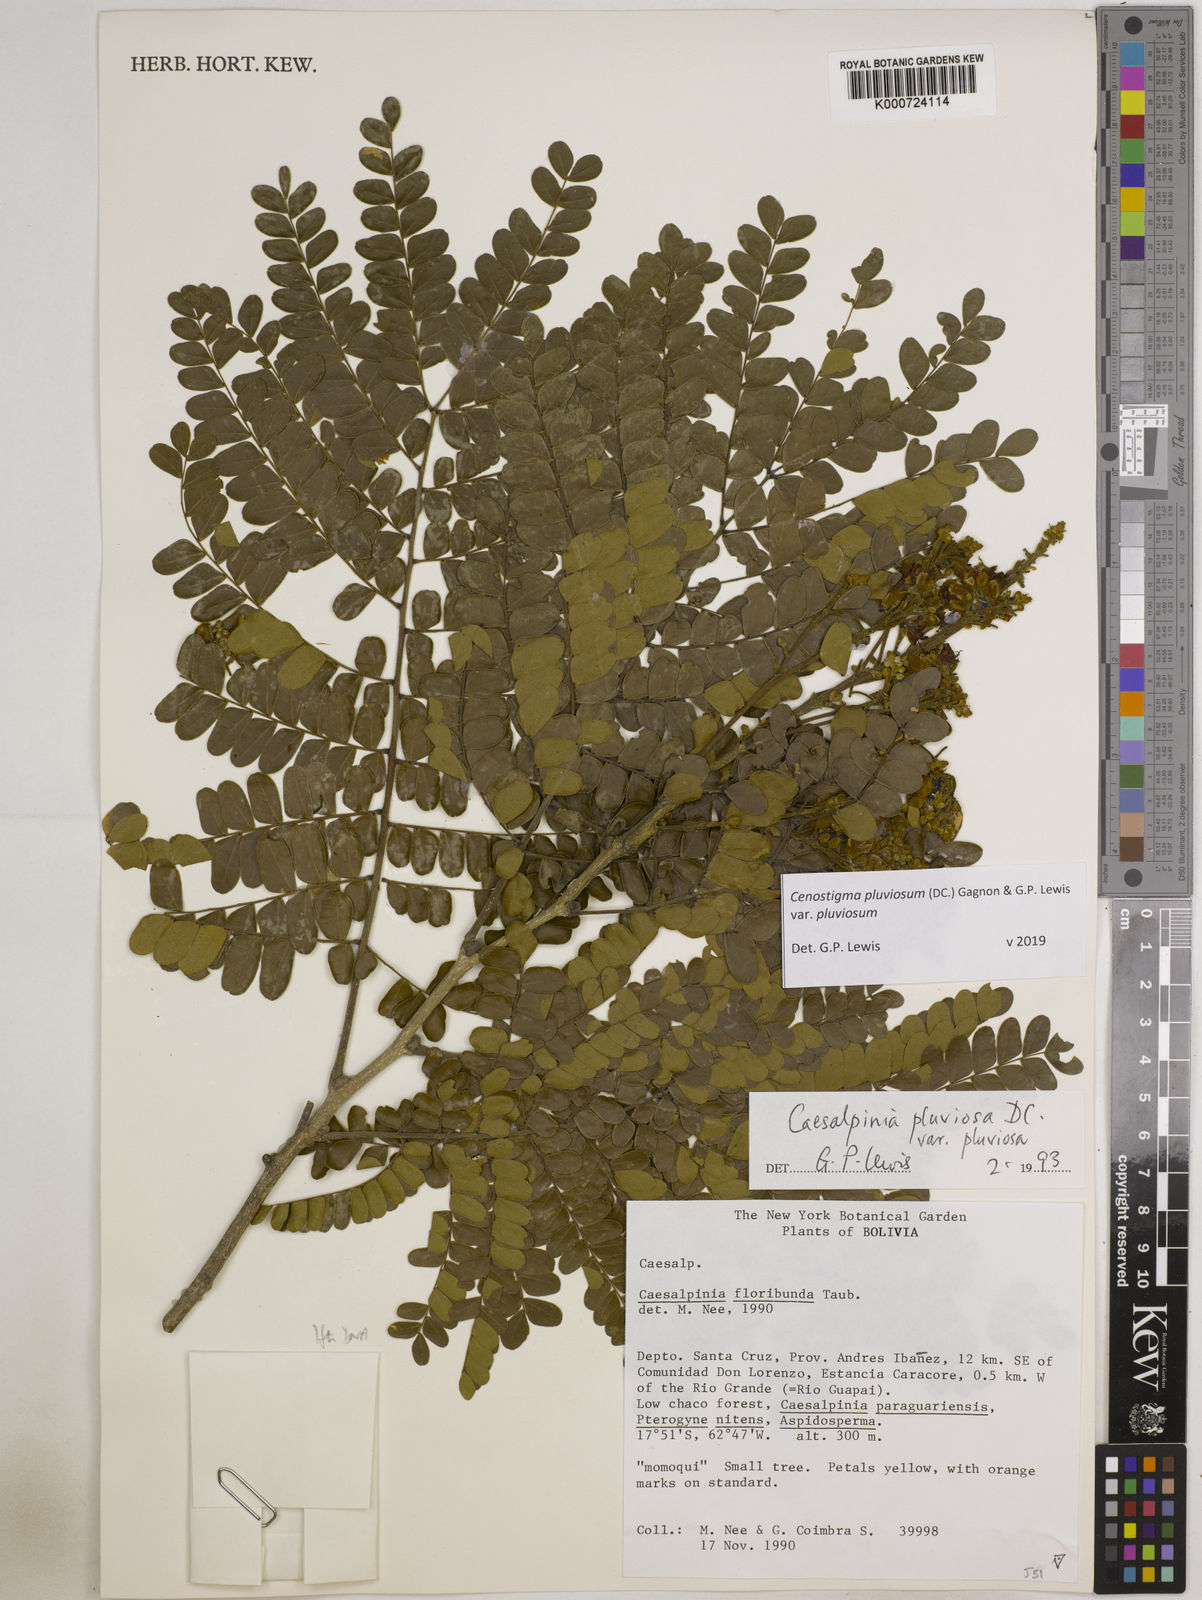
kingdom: Plantae
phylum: Tracheophyta
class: Magnoliopsida
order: Fabales
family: Fabaceae
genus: Cenostigma
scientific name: Cenostigma pluviosum
